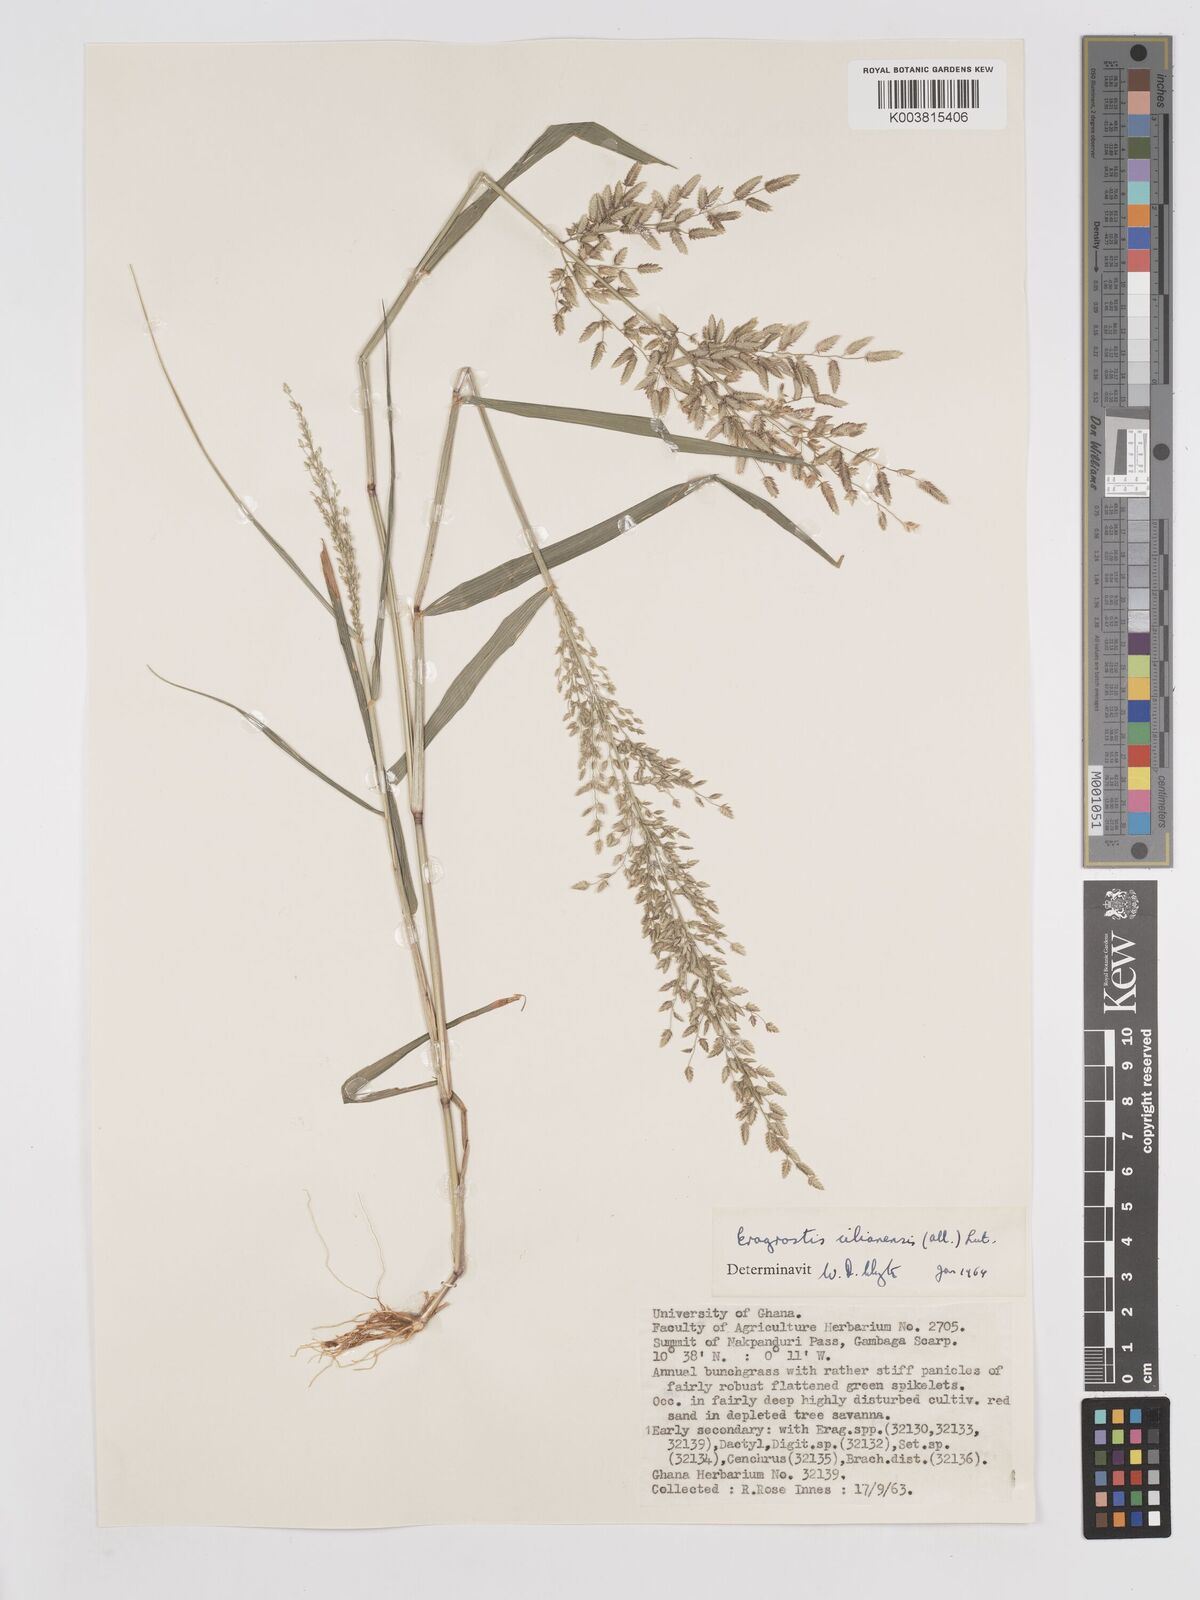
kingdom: Plantae
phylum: Tracheophyta
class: Liliopsida
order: Poales
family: Poaceae
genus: Eragrostis
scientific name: Eragrostis cilianensis
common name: Stinkgrass
